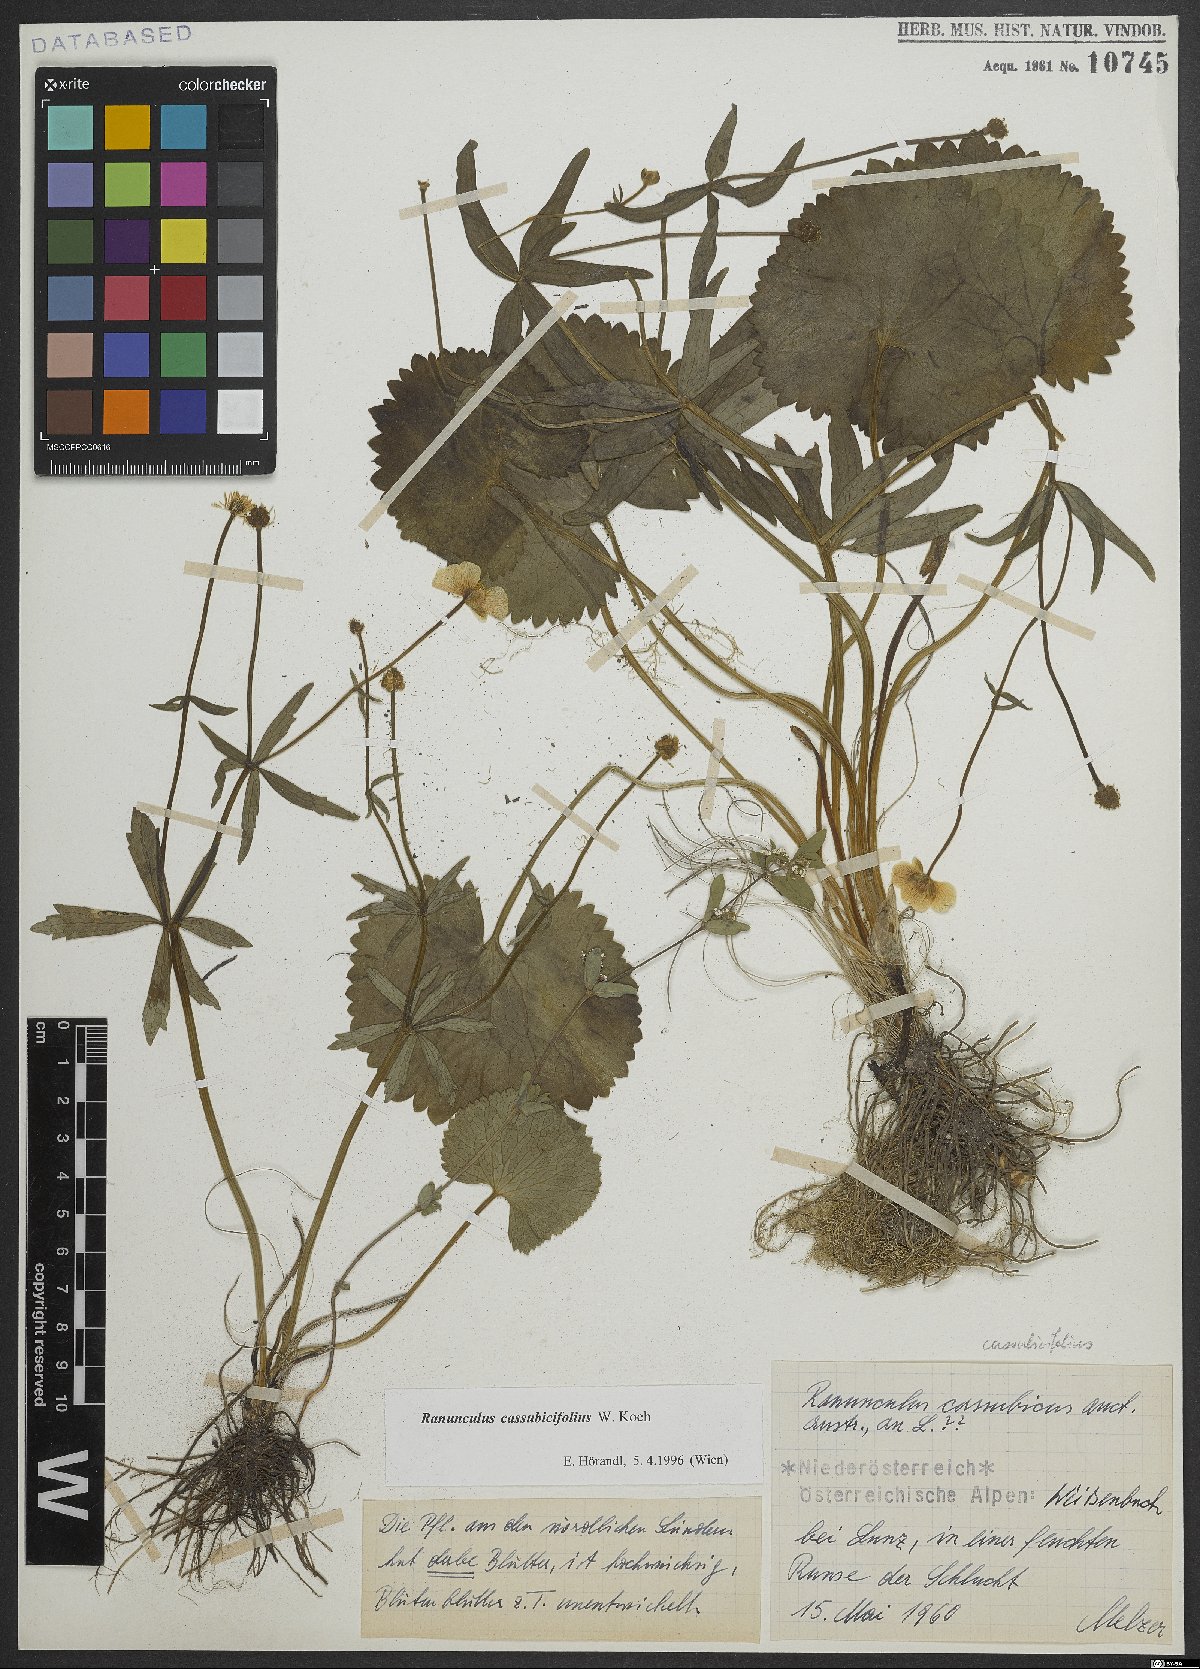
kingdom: Plantae
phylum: Tracheophyta
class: Magnoliopsida
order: Ranunculales
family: Ranunculaceae
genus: Ranunculus
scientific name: Ranunculus cassubicifolius
